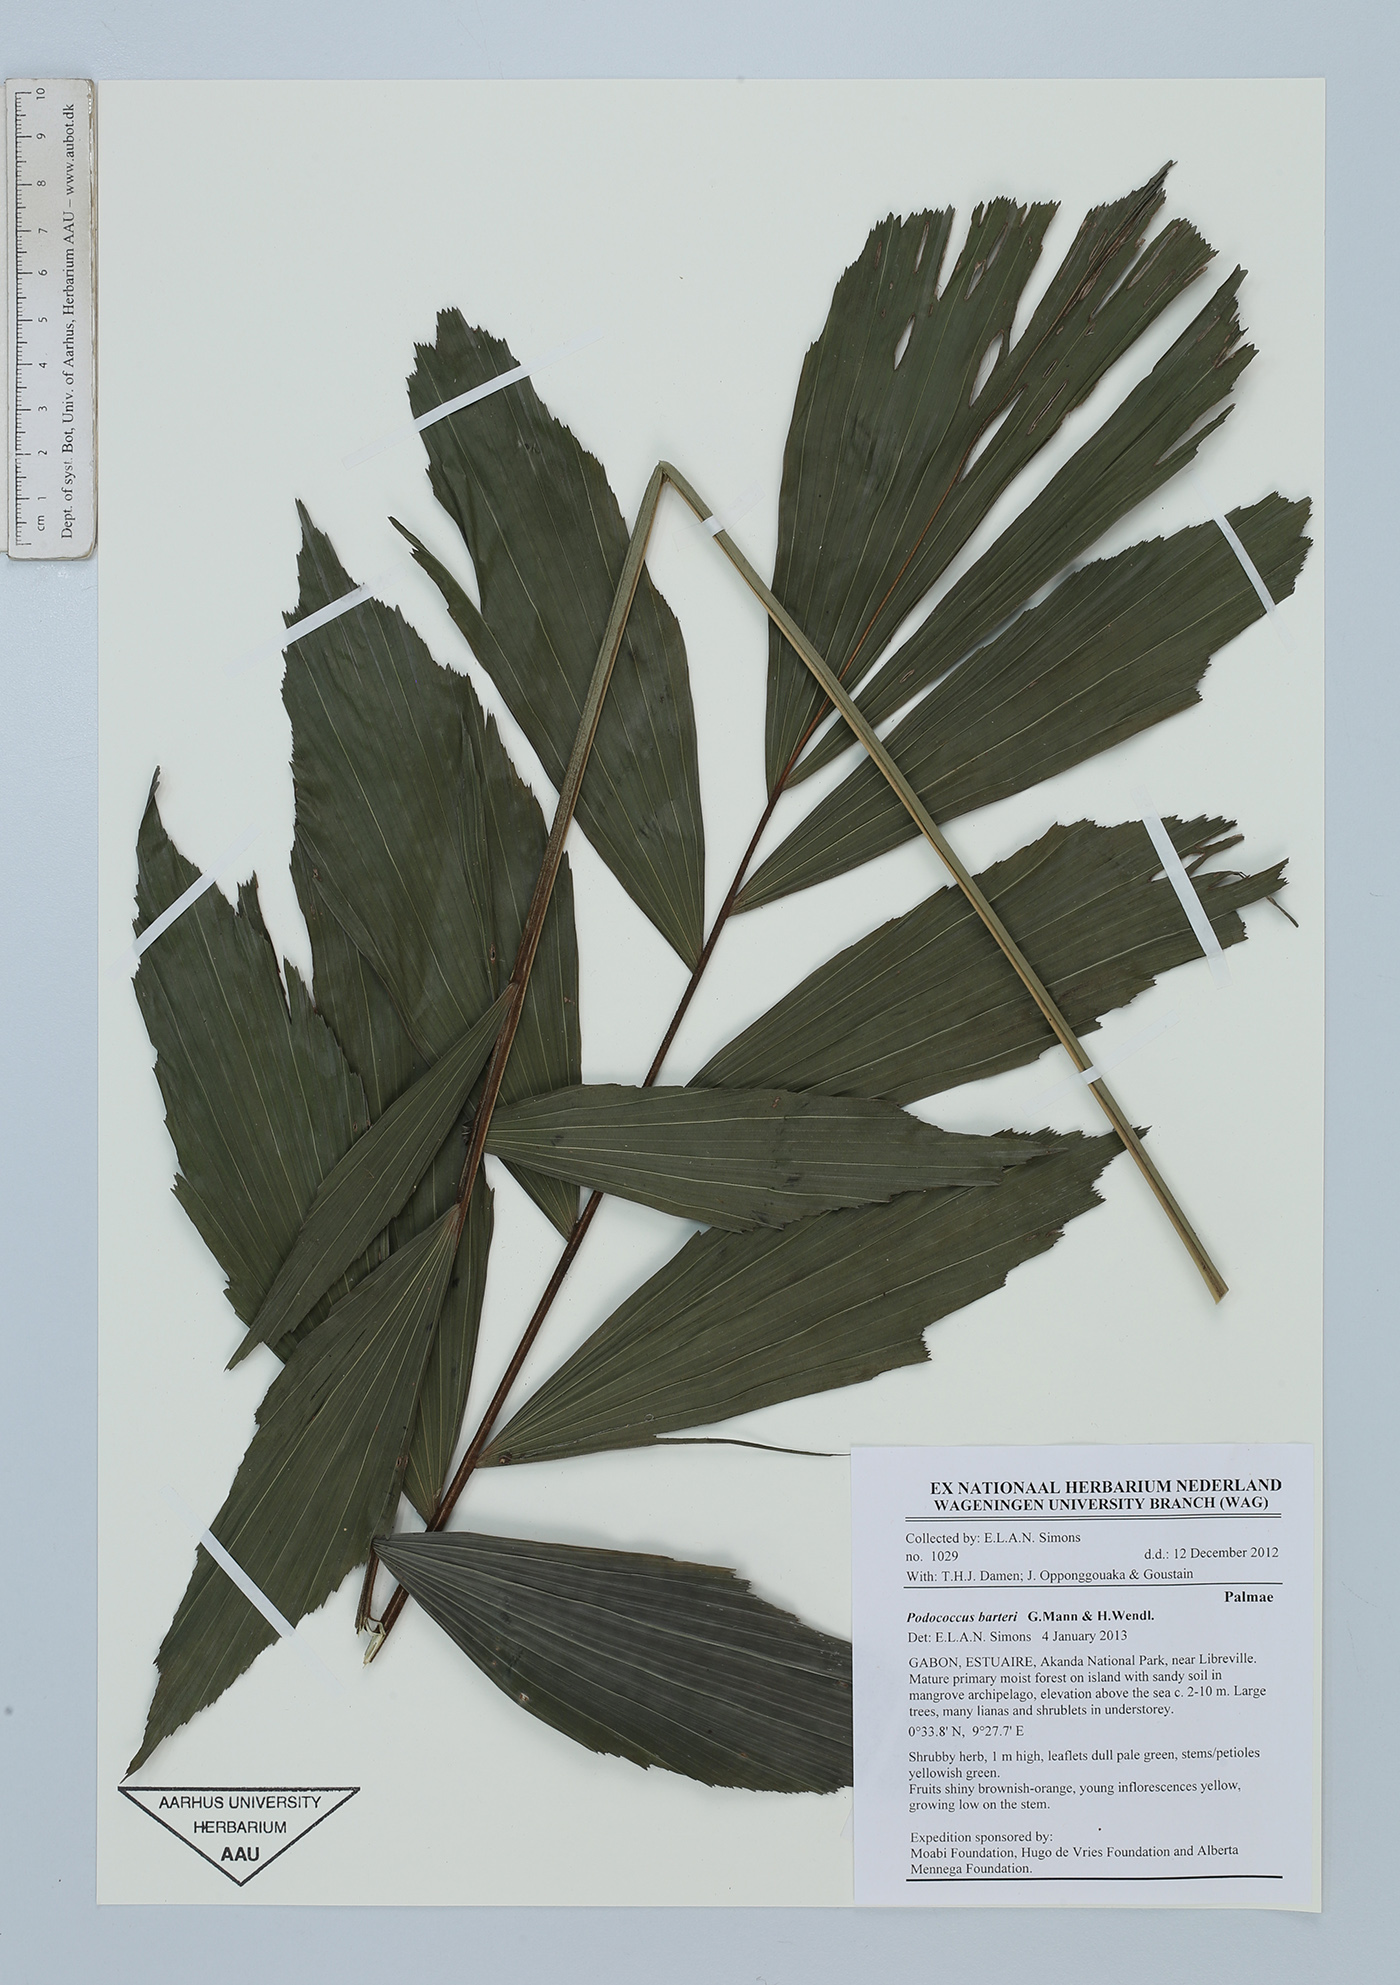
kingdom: Plantae
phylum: Tracheophyta
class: Liliopsida
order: Arecales
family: Arecaceae
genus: Podococcus
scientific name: Podococcus barteri
